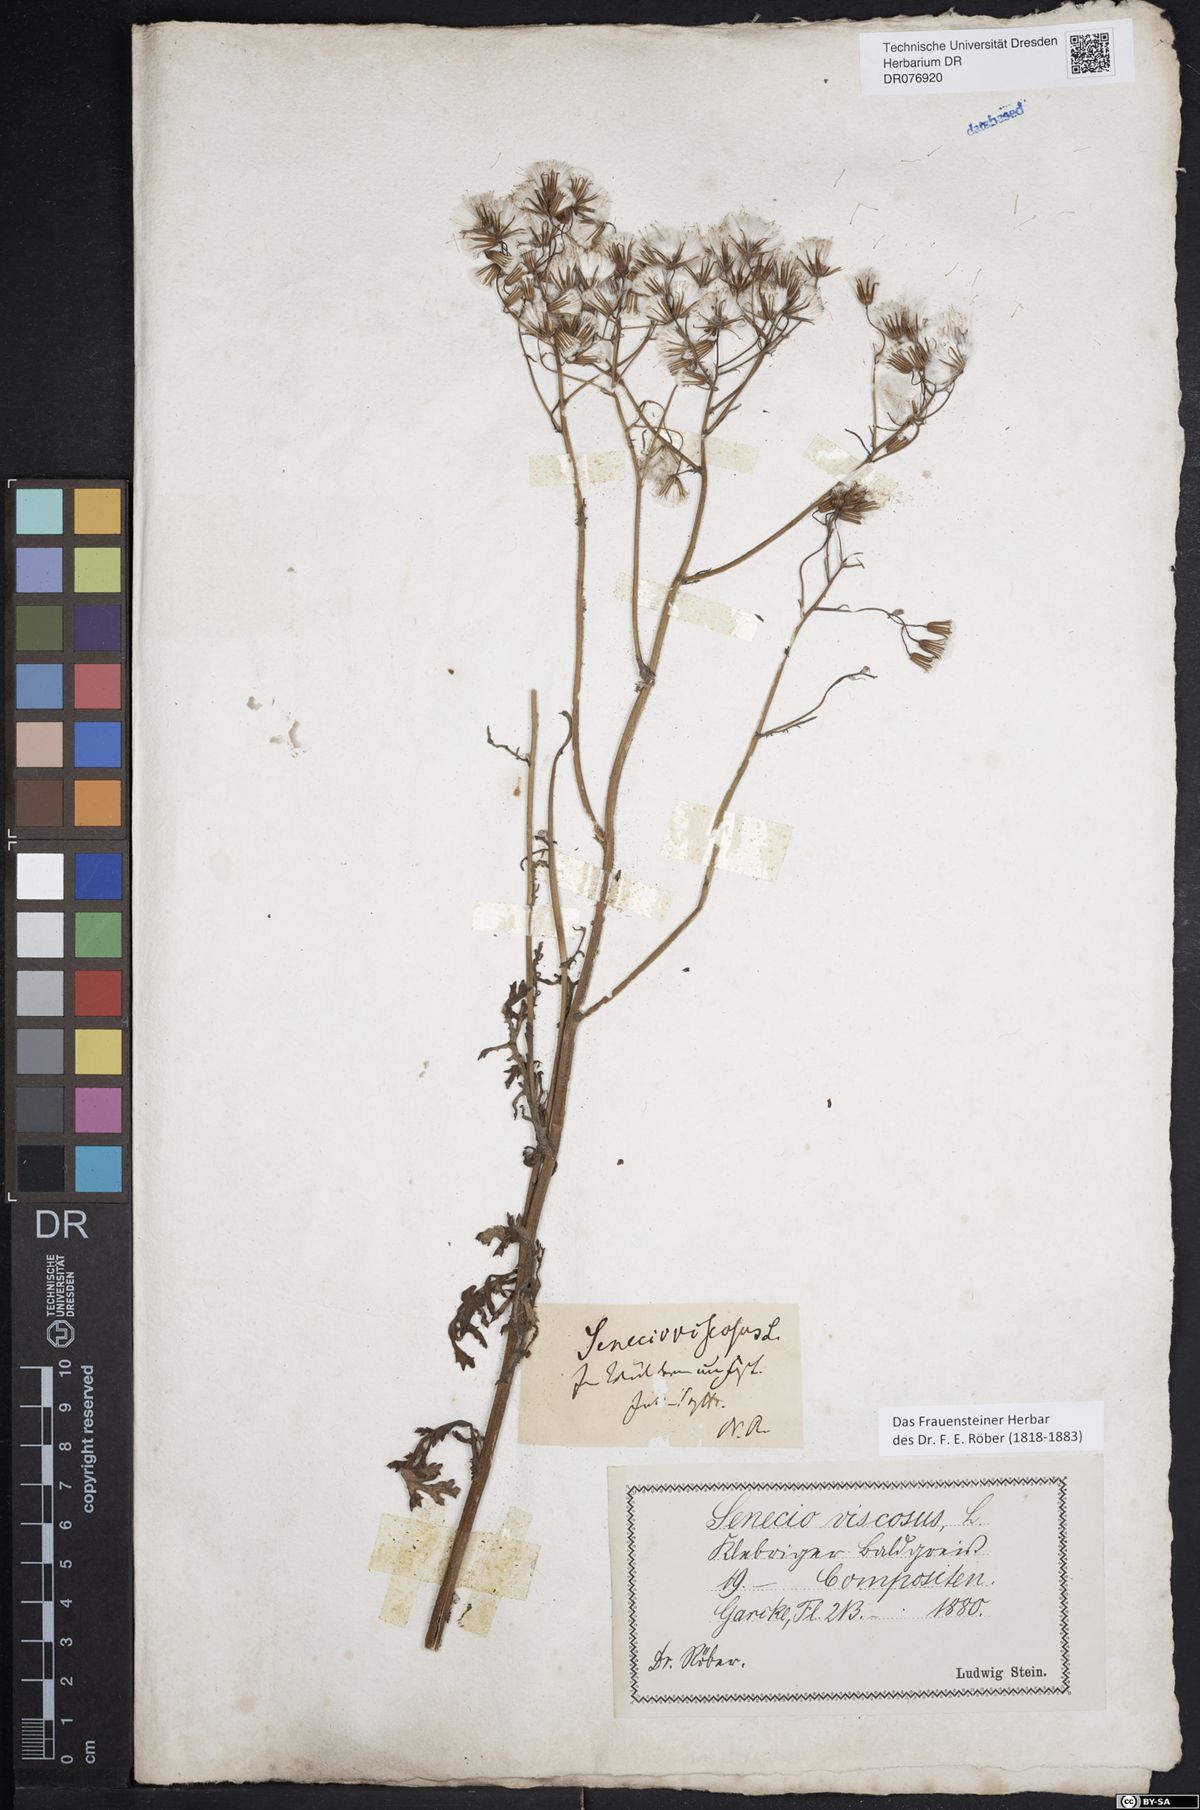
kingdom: Plantae
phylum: Tracheophyta
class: Magnoliopsida
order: Asterales
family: Asteraceae
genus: Senecio
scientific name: Senecio viscosus
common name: Sticky groundsel
